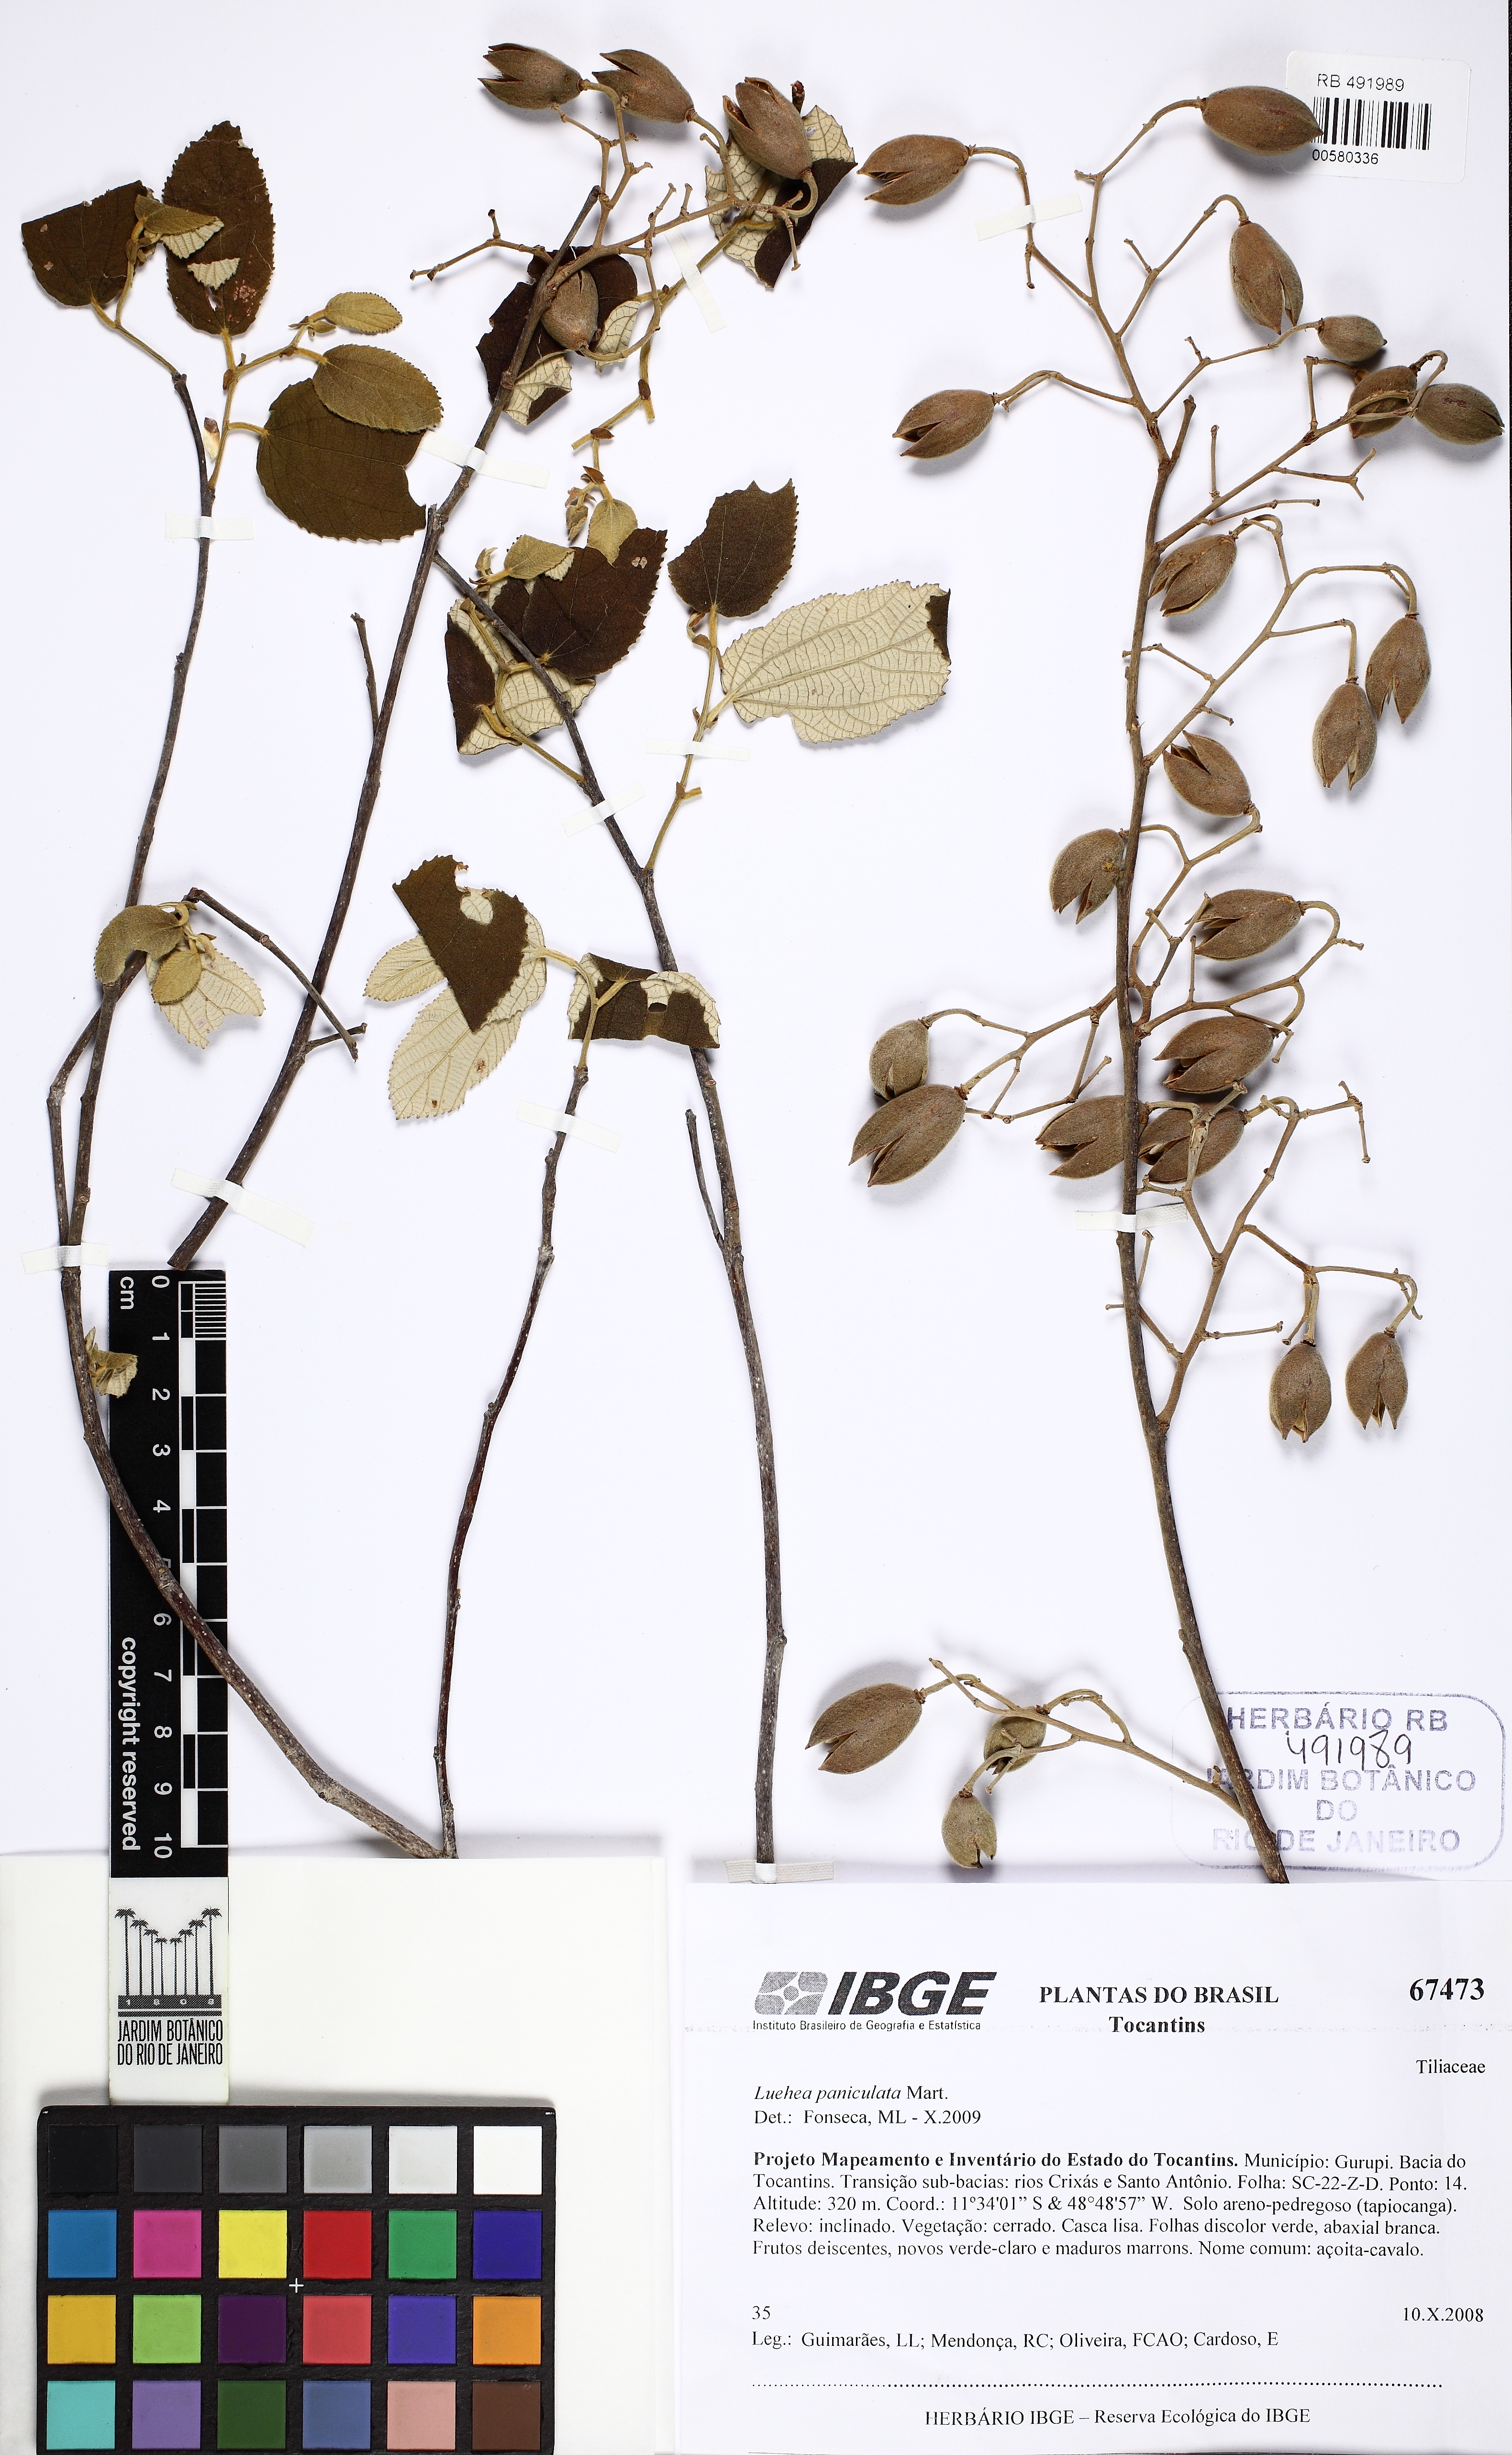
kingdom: Plantae
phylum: Tracheophyta
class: Magnoliopsida
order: Malvales
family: Malvaceae
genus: Luehea
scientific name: Luehea paniculata
